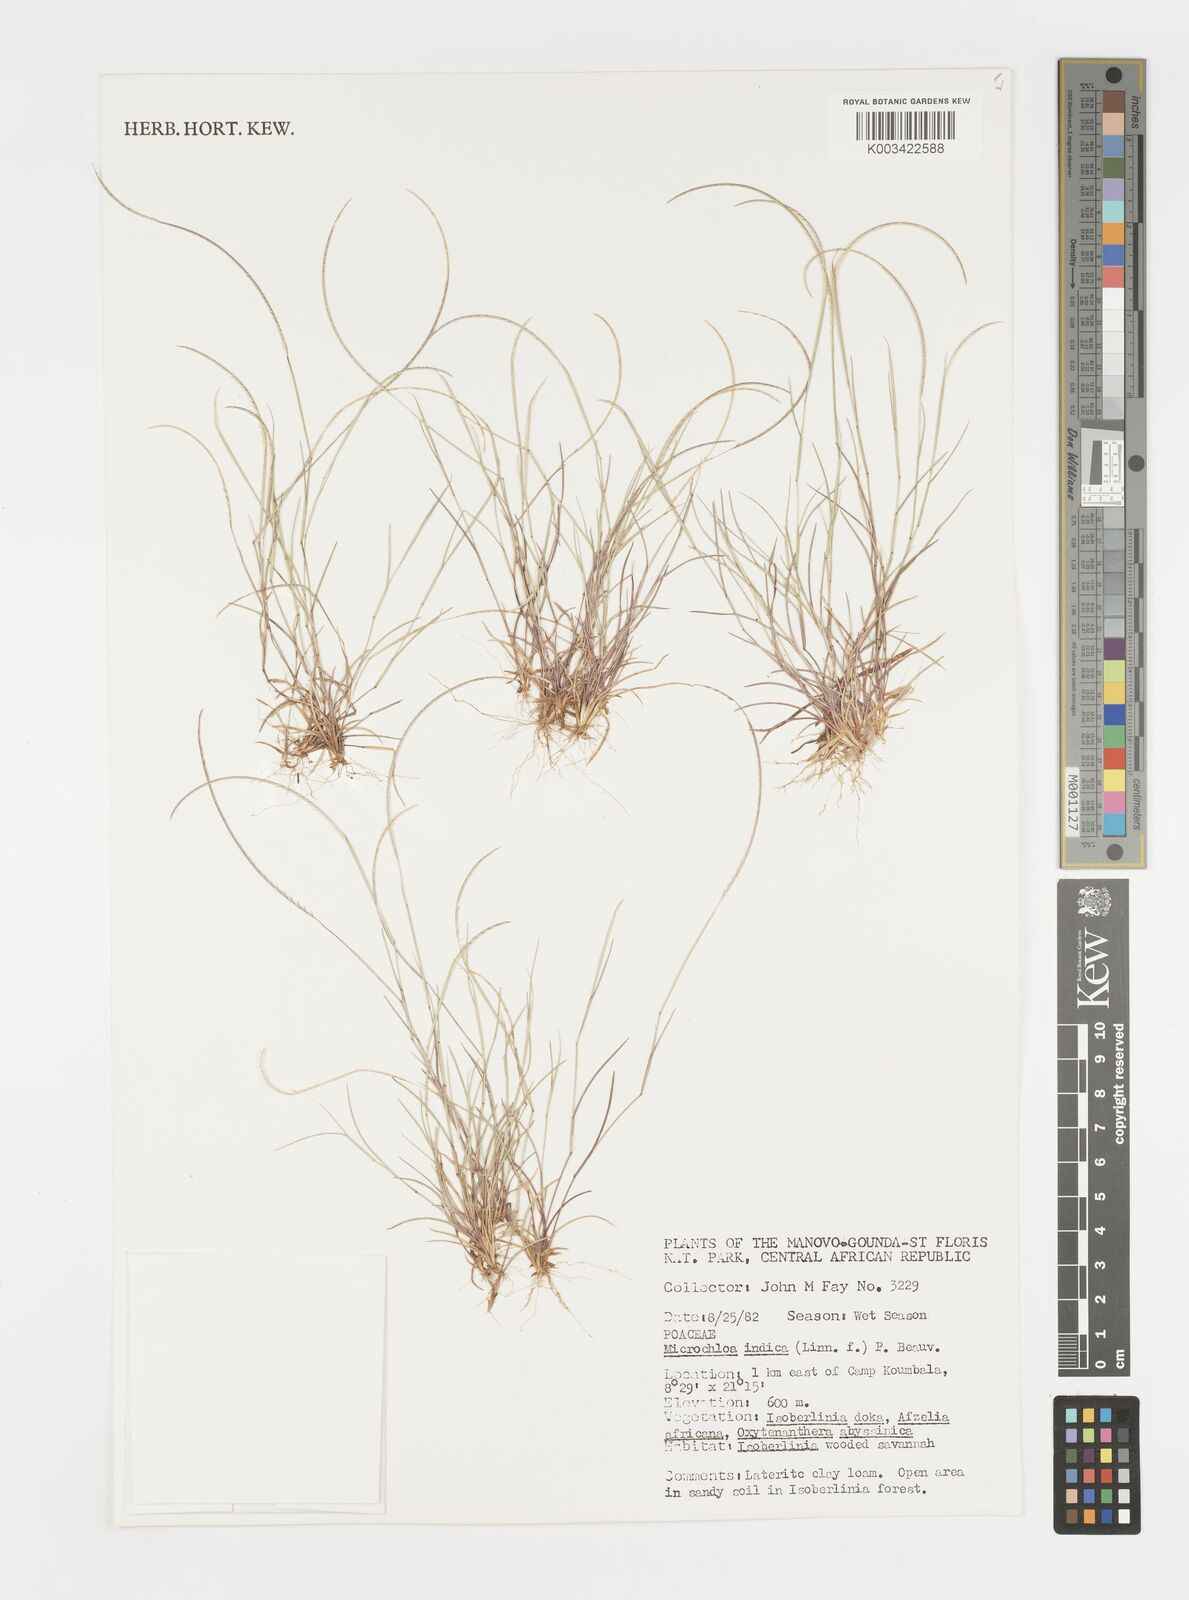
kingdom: Plantae
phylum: Tracheophyta
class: Liliopsida
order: Poales
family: Poaceae
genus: Microchloa
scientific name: Microchloa indica
